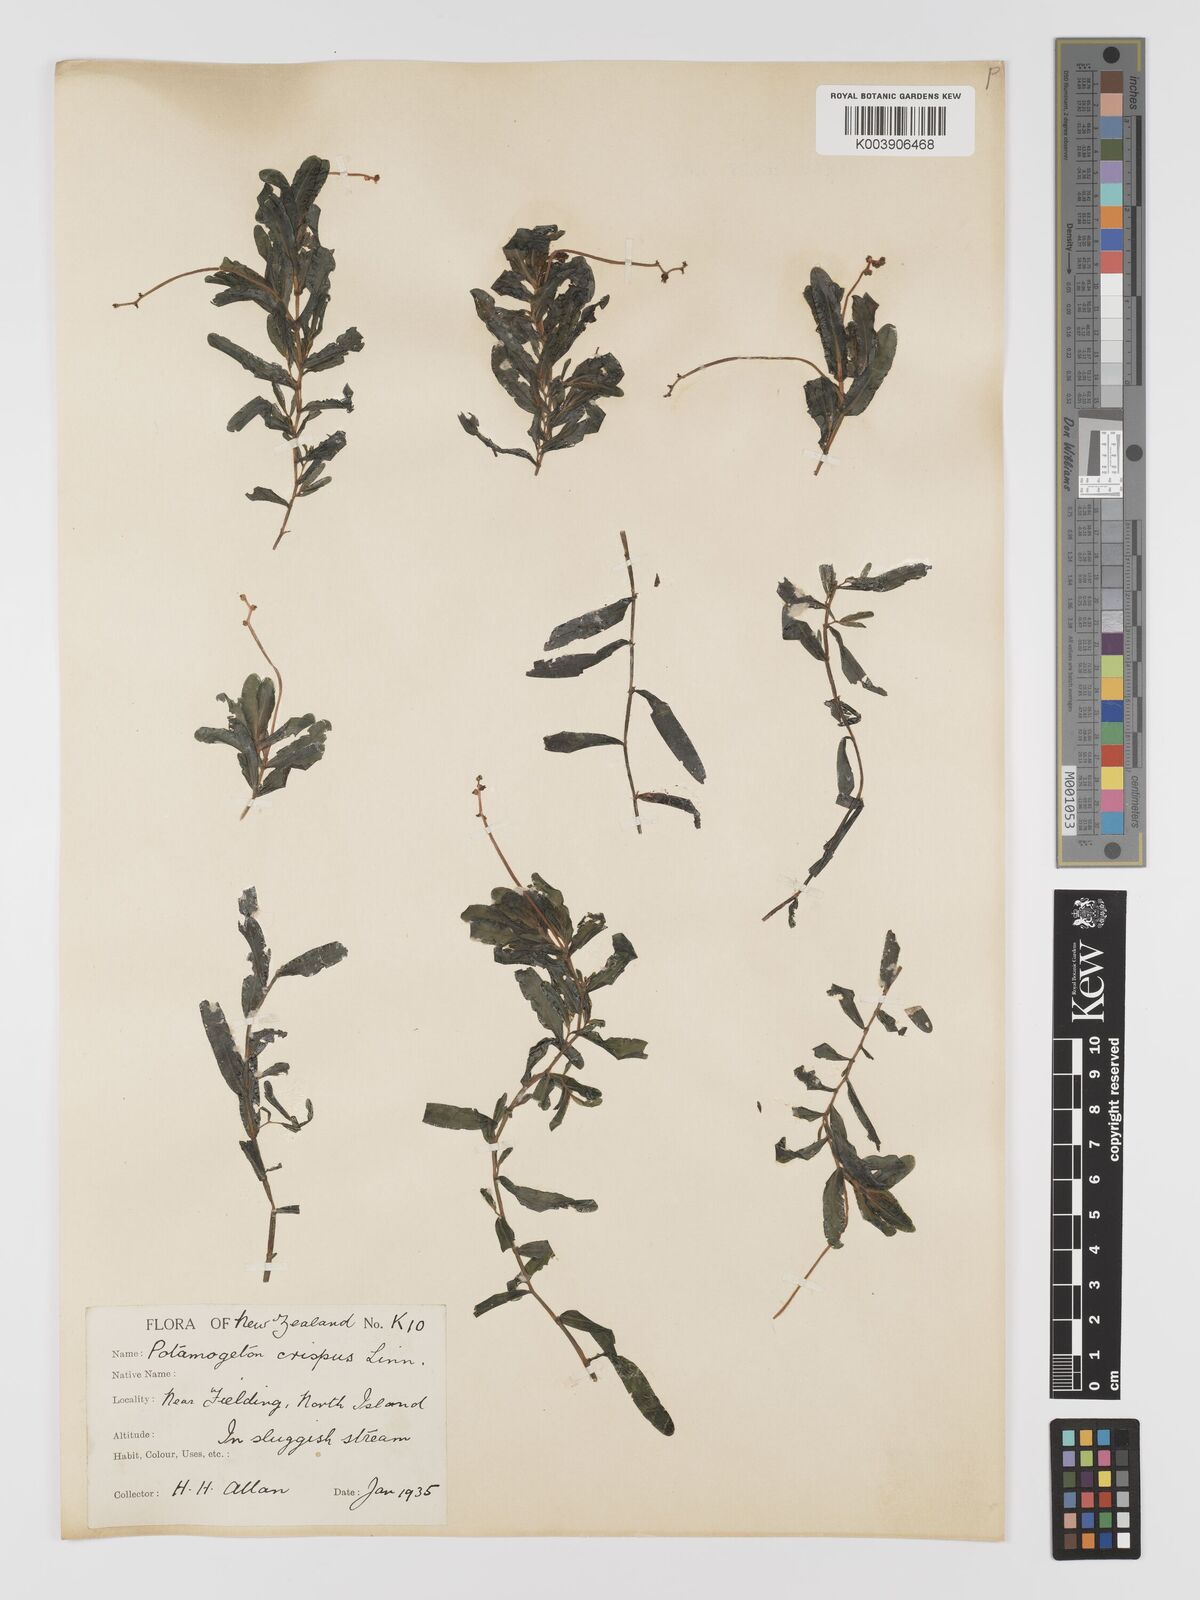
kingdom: Plantae
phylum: Tracheophyta
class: Liliopsida
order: Alismatales
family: Potamogetonaceae
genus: Potamogeton
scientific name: Potamogeton crispus
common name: Curled pondweed
